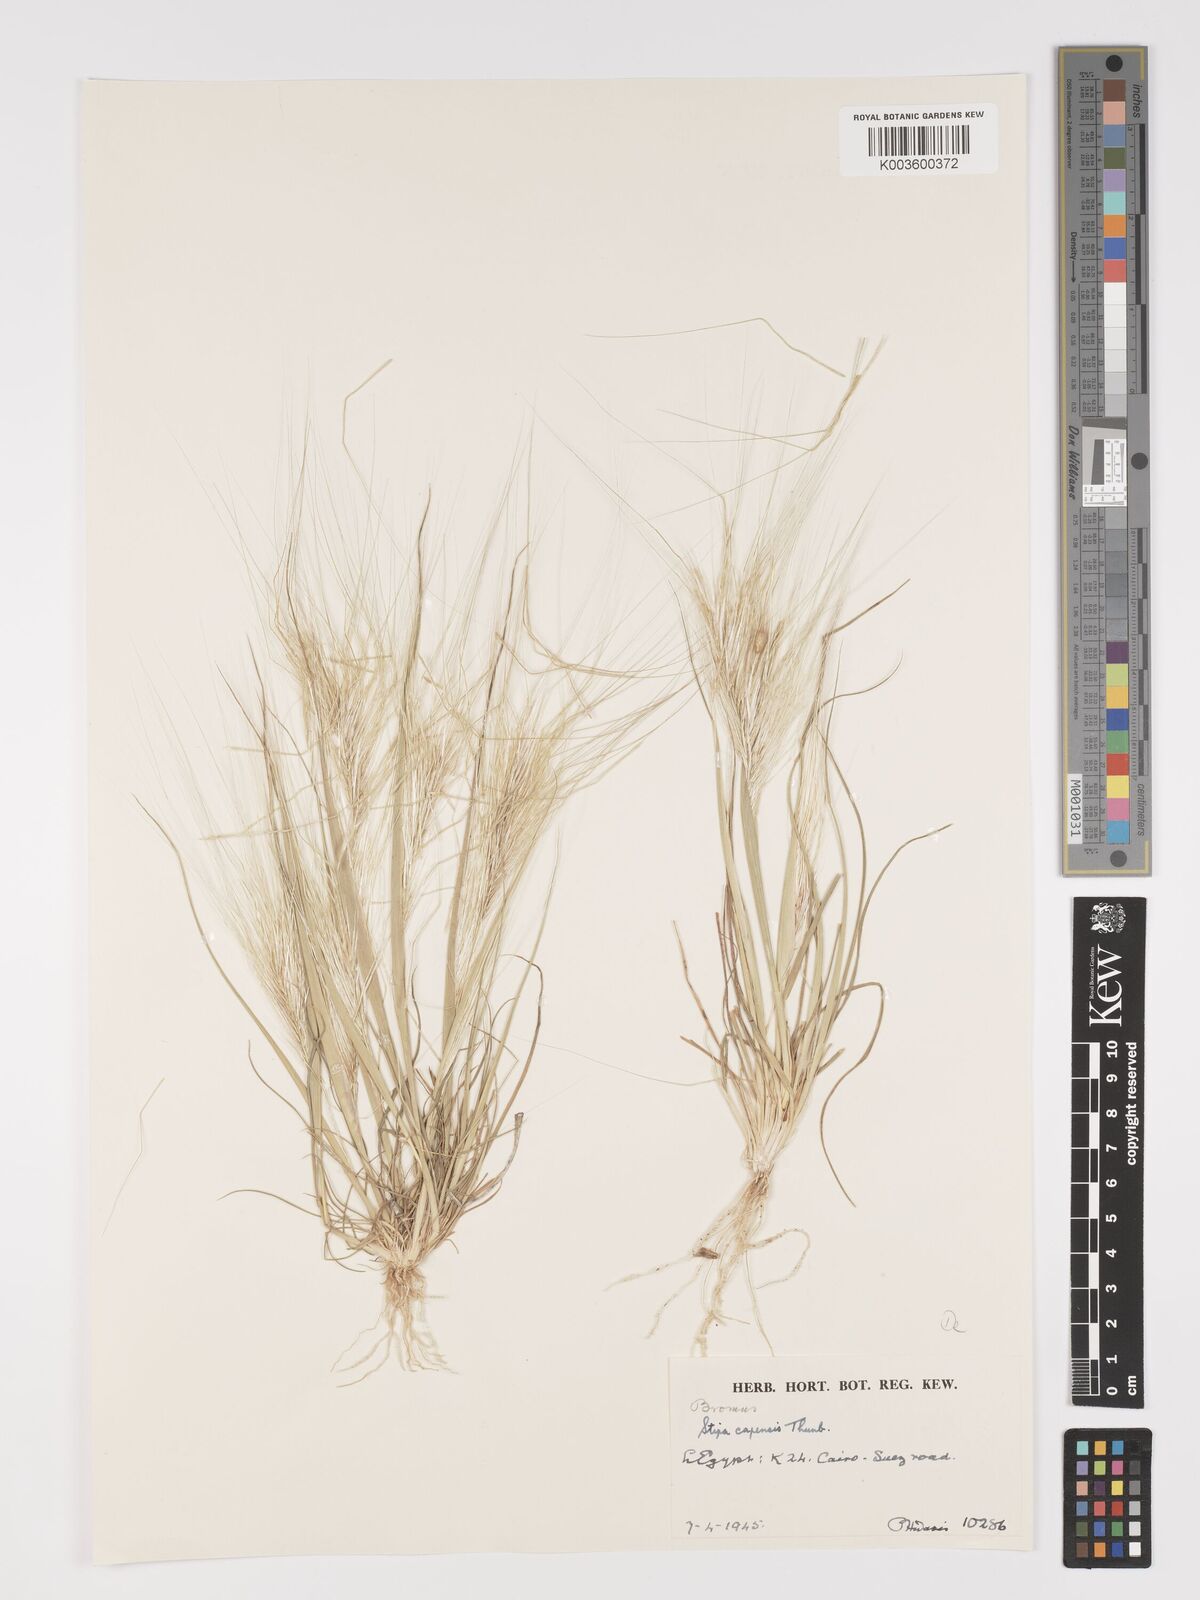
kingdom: Plantae
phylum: Tracheophyta
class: Liliopsida
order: Poales
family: Poaceae
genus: Stipellula
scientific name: Stipellula capensis
